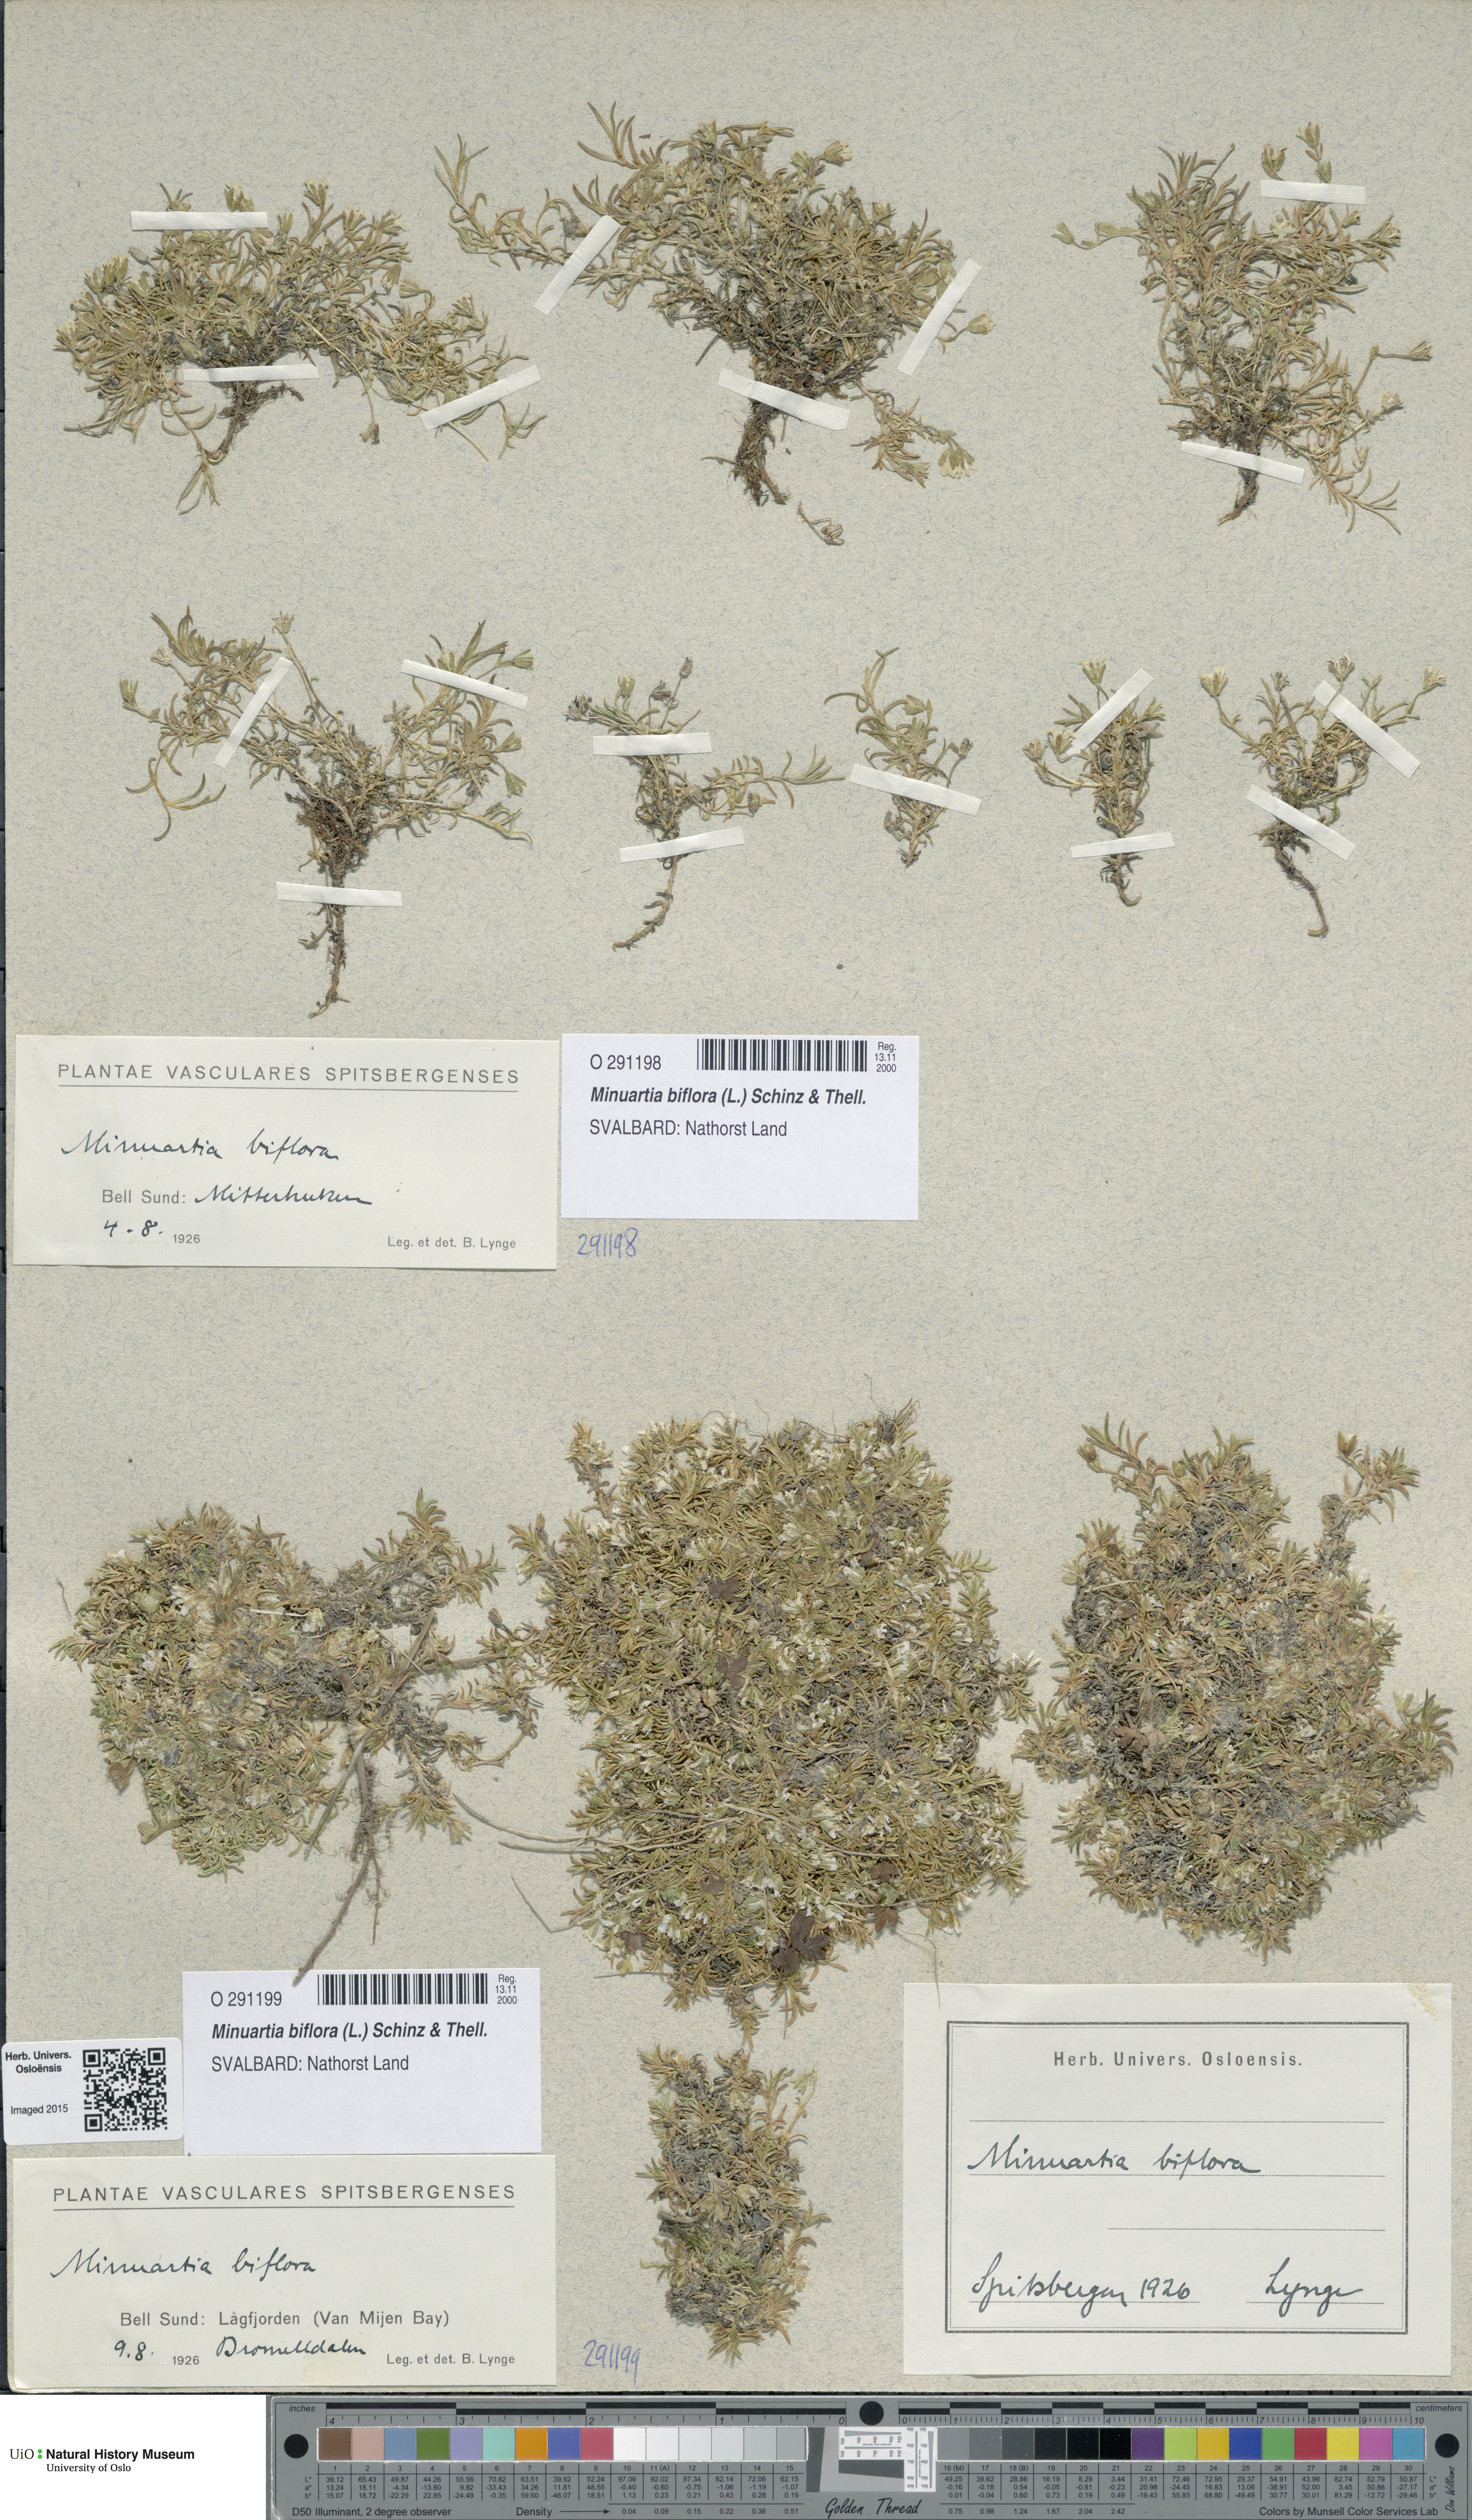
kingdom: Plantae
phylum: Tracheophyta
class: Magnoliopsida
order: Caryophyllales
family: Caryophyllaceae
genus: Cherleria
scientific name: Cherleria biflora
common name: Mountain sandwort
